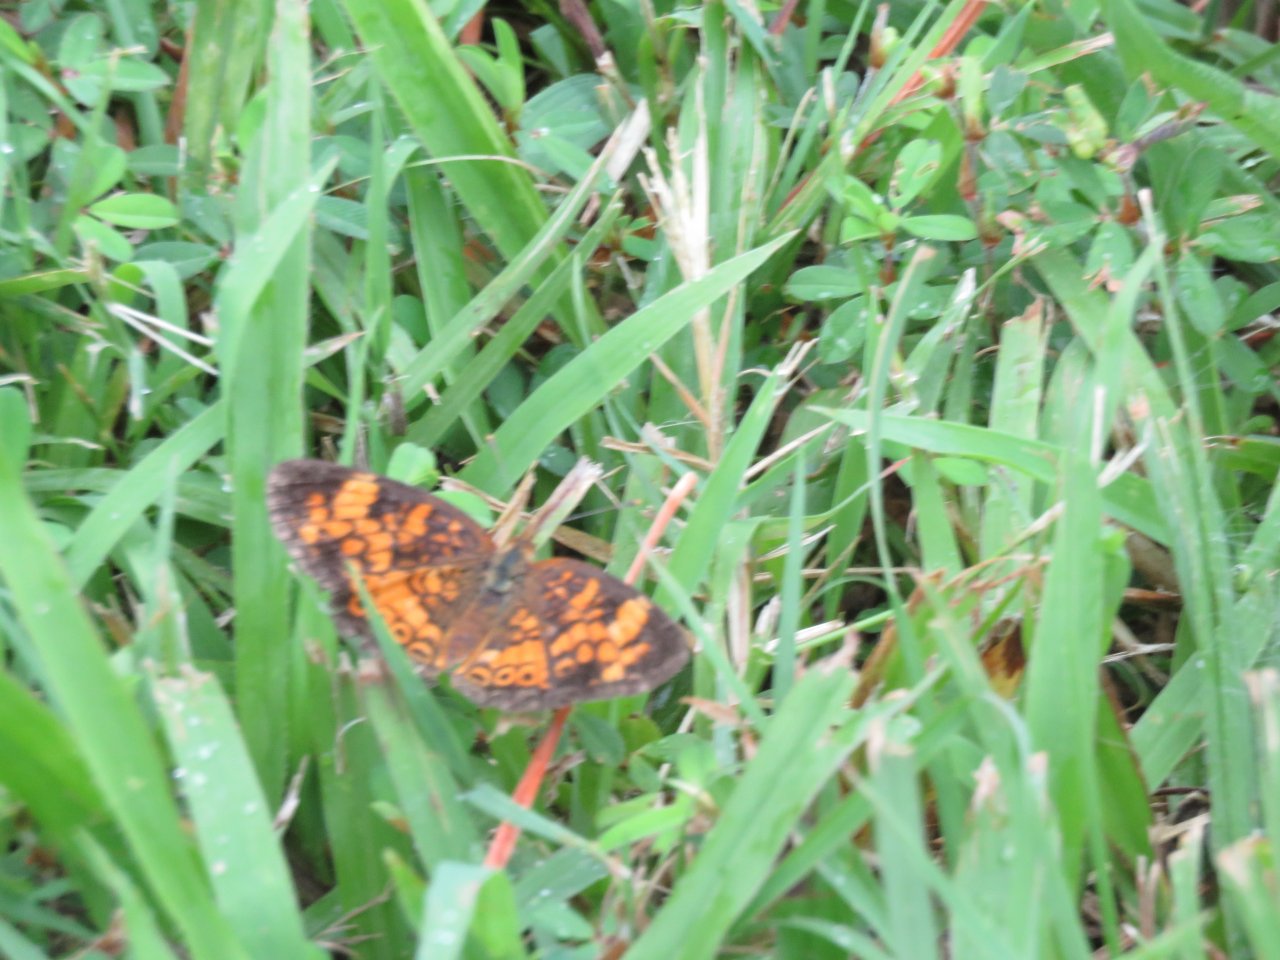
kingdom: Animalia
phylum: Arthropoda
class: Insecta
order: Lepidoptera
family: Nymphalidae
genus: Phyciodes
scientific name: Phyciodes tharos
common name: Pearl Crescent
